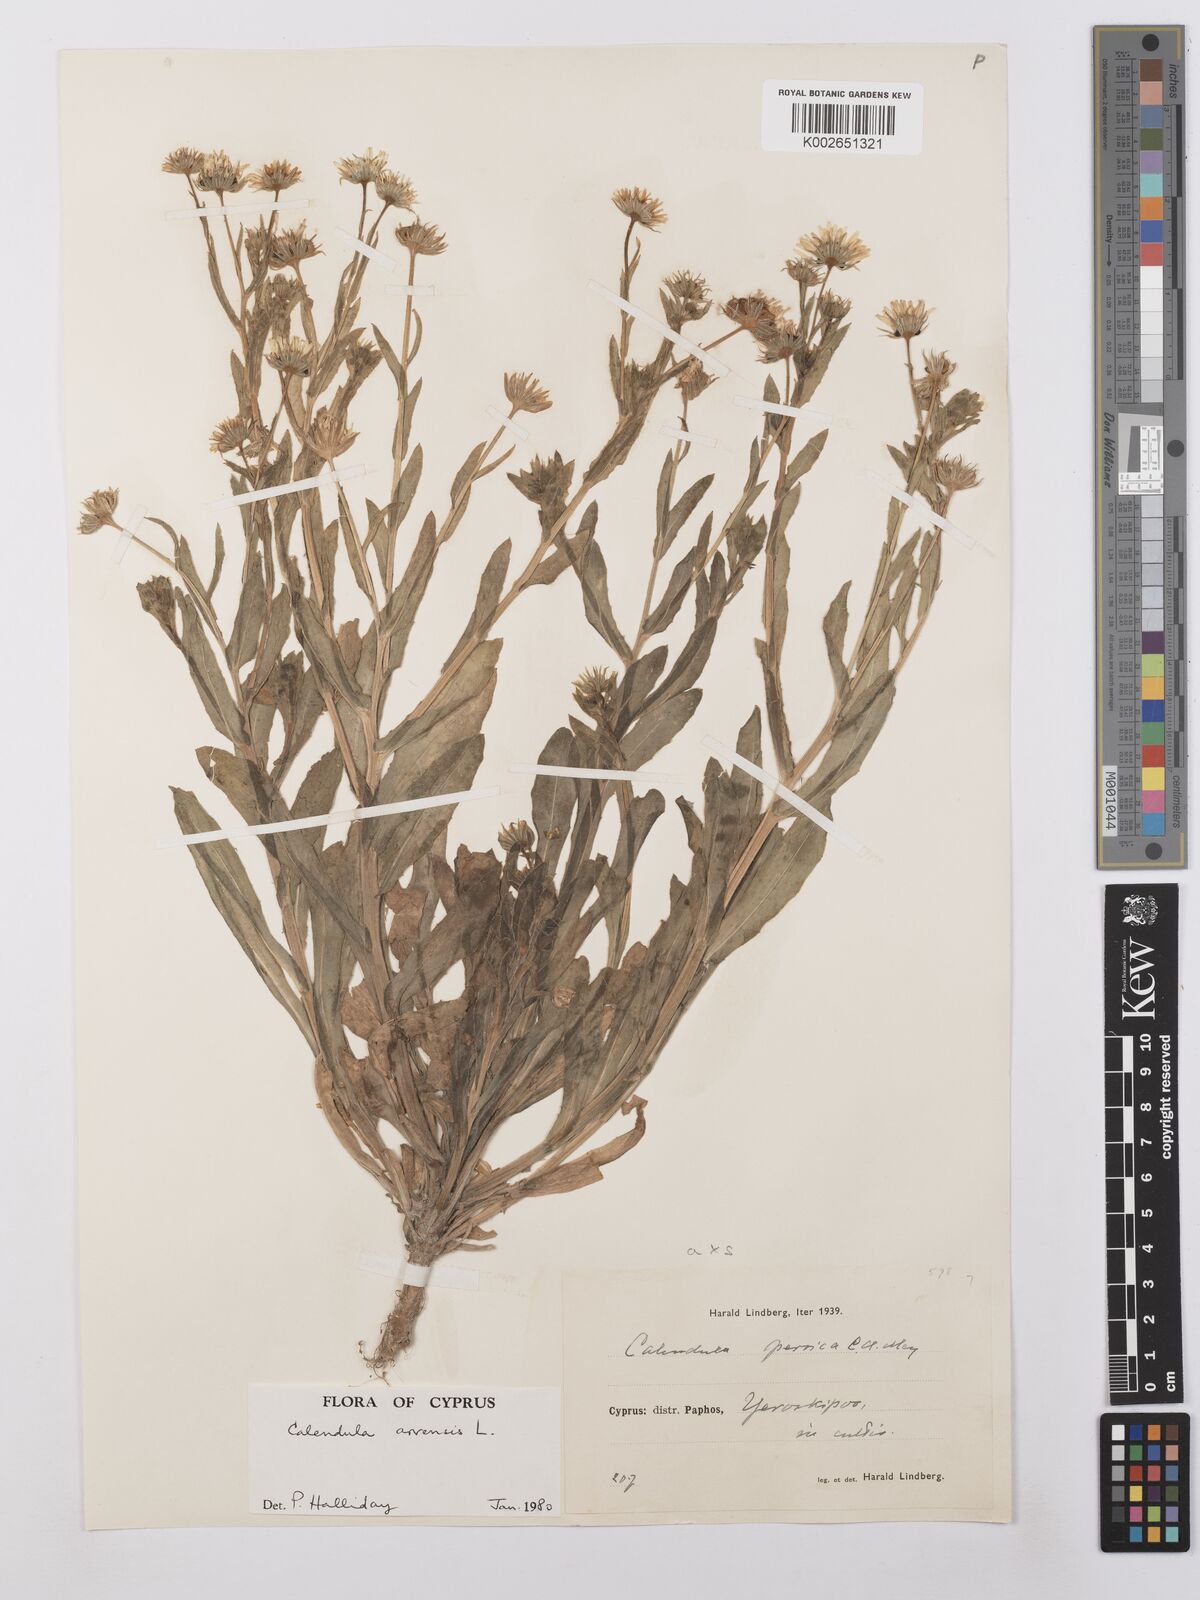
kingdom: Plantae
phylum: Tracheophyta
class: Magnoliopsida
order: Asterales
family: Asteraceae
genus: Calendula
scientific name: Calendula arvensis
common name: Field marigold
